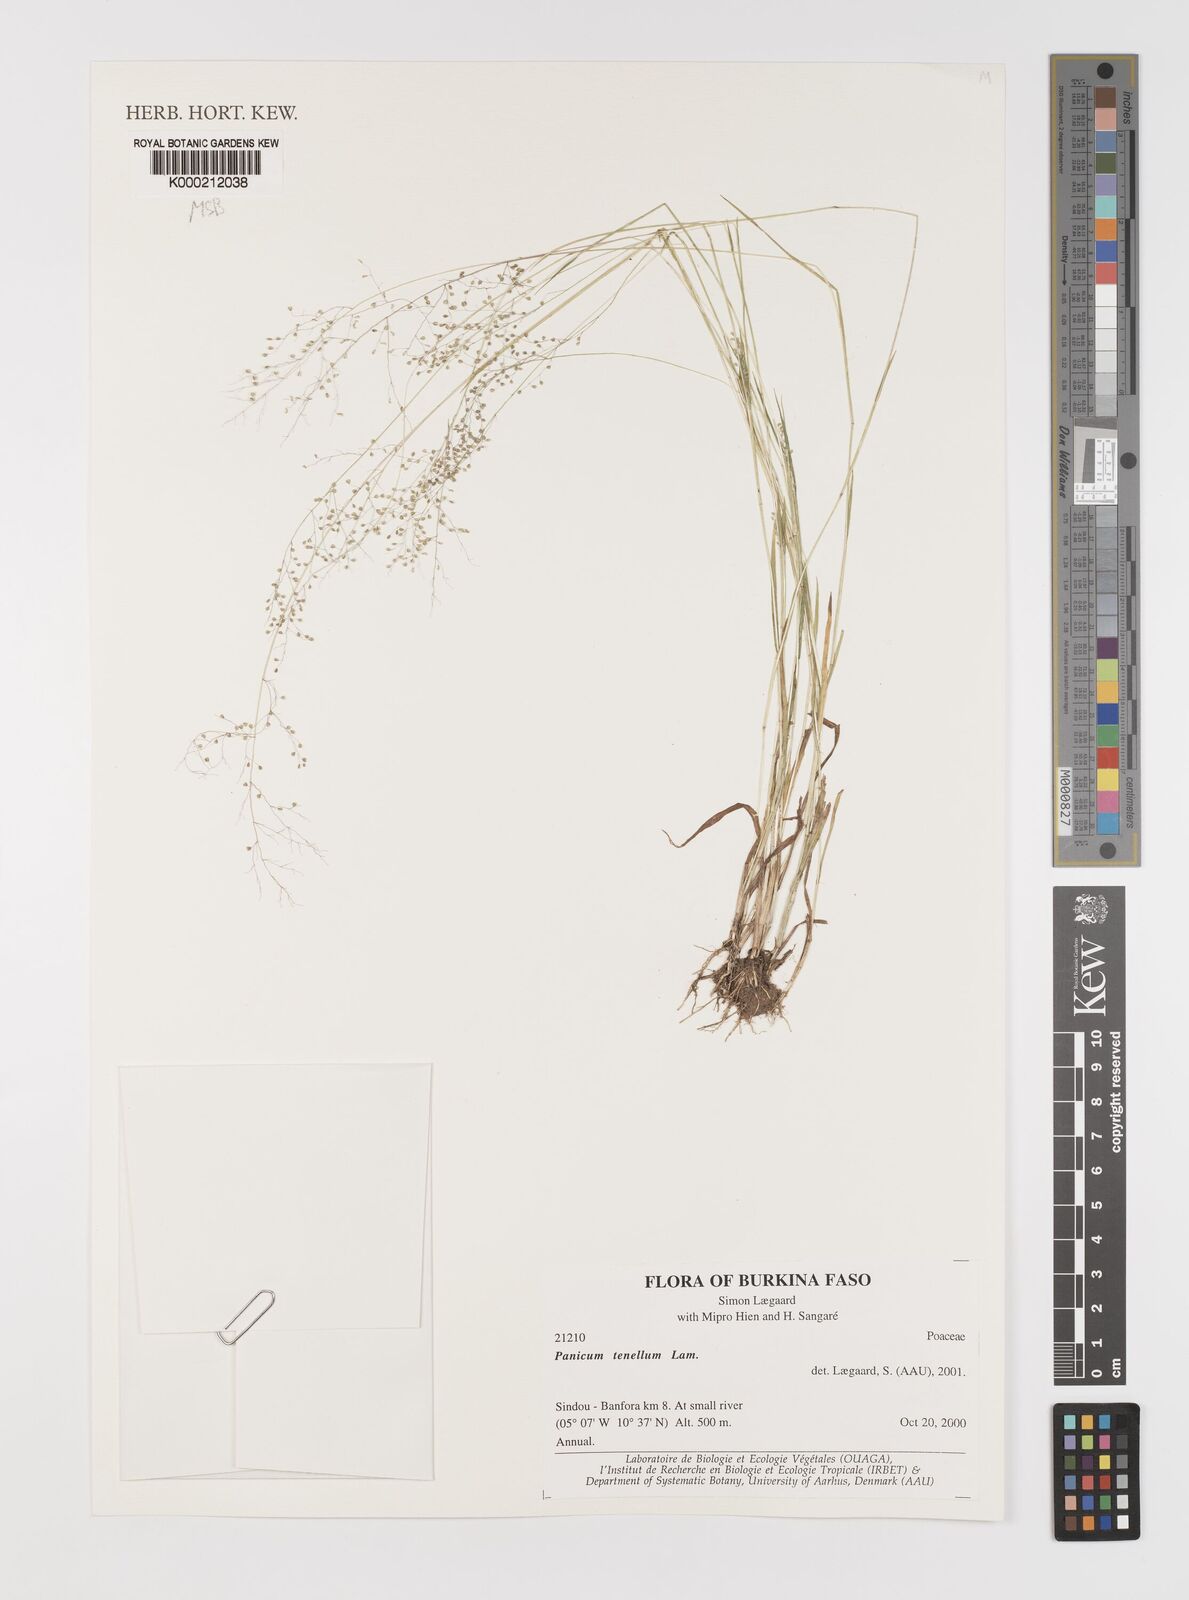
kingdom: Plantae
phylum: Tracheophyta
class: Liliopsida
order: Poales
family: Poaceae
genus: Trichanthecium
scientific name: Trichanthecium tenellum
